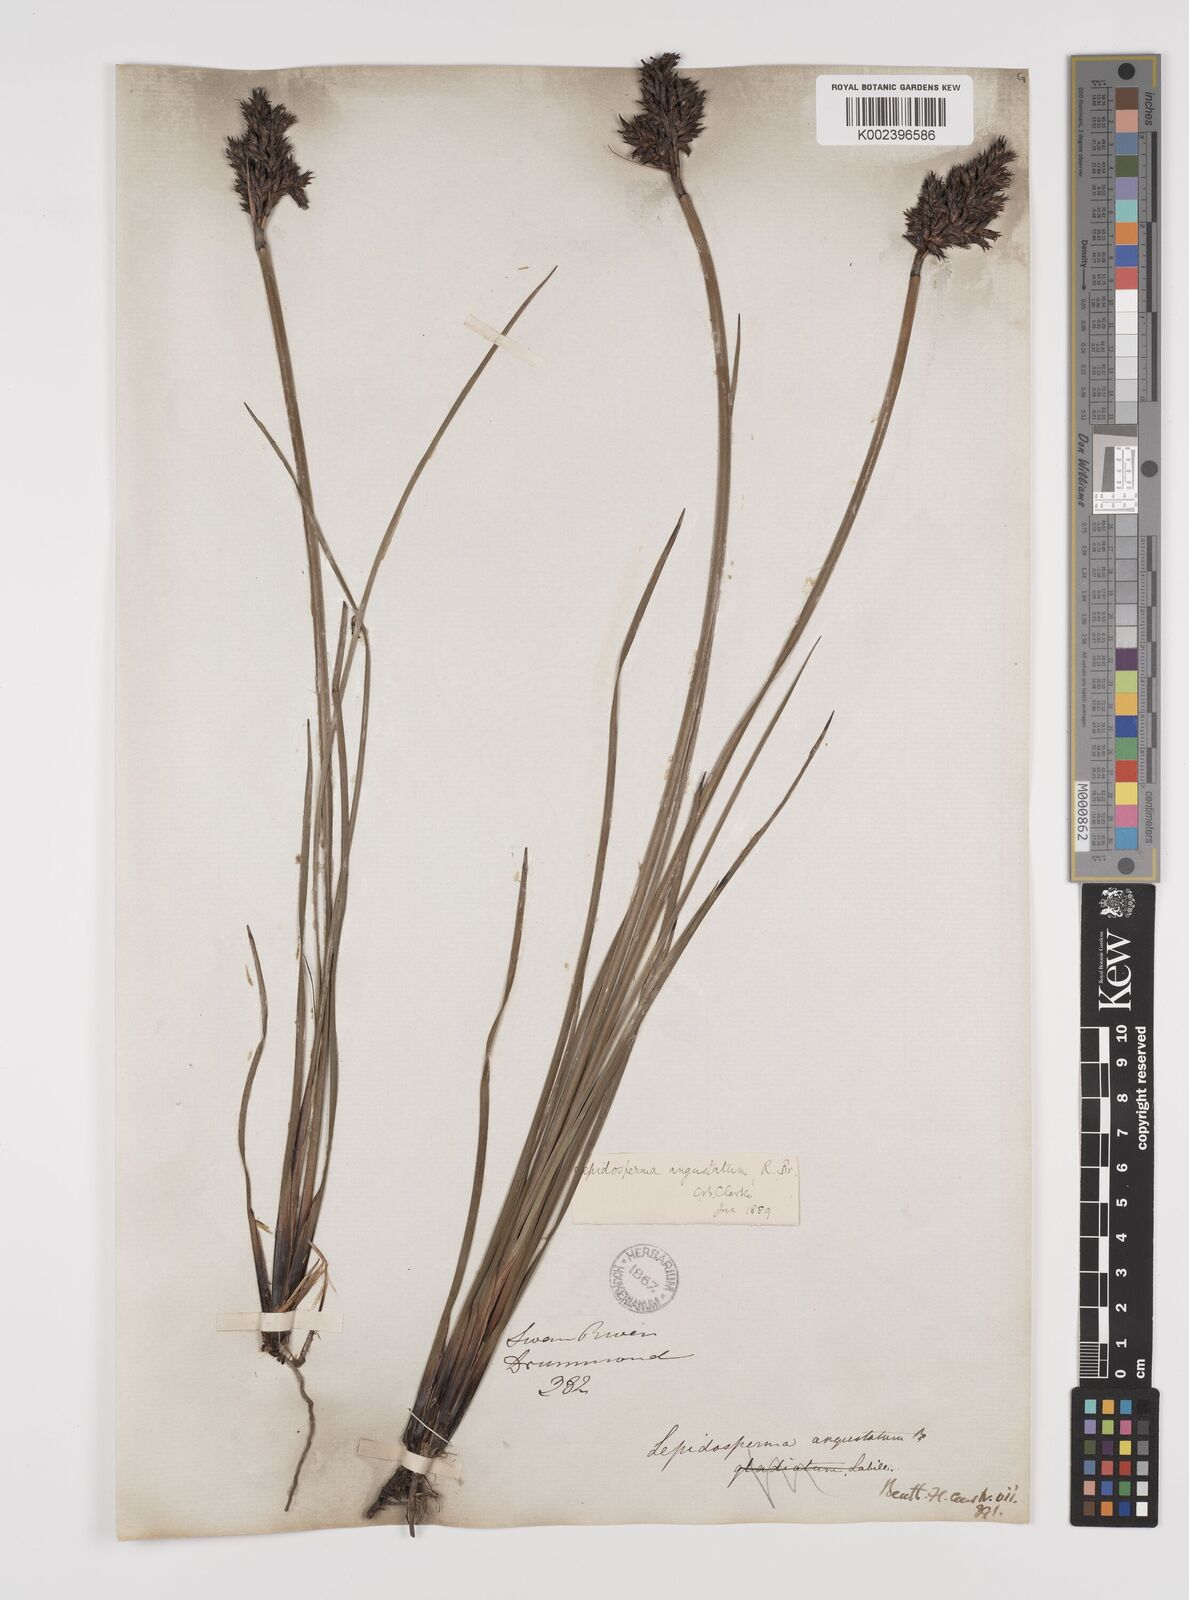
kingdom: Plantae
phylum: Tracheophyta
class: Liliopsida
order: Poales
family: Cyperaceae
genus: Lepidosperma
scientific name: Lepidosperma angustatum
